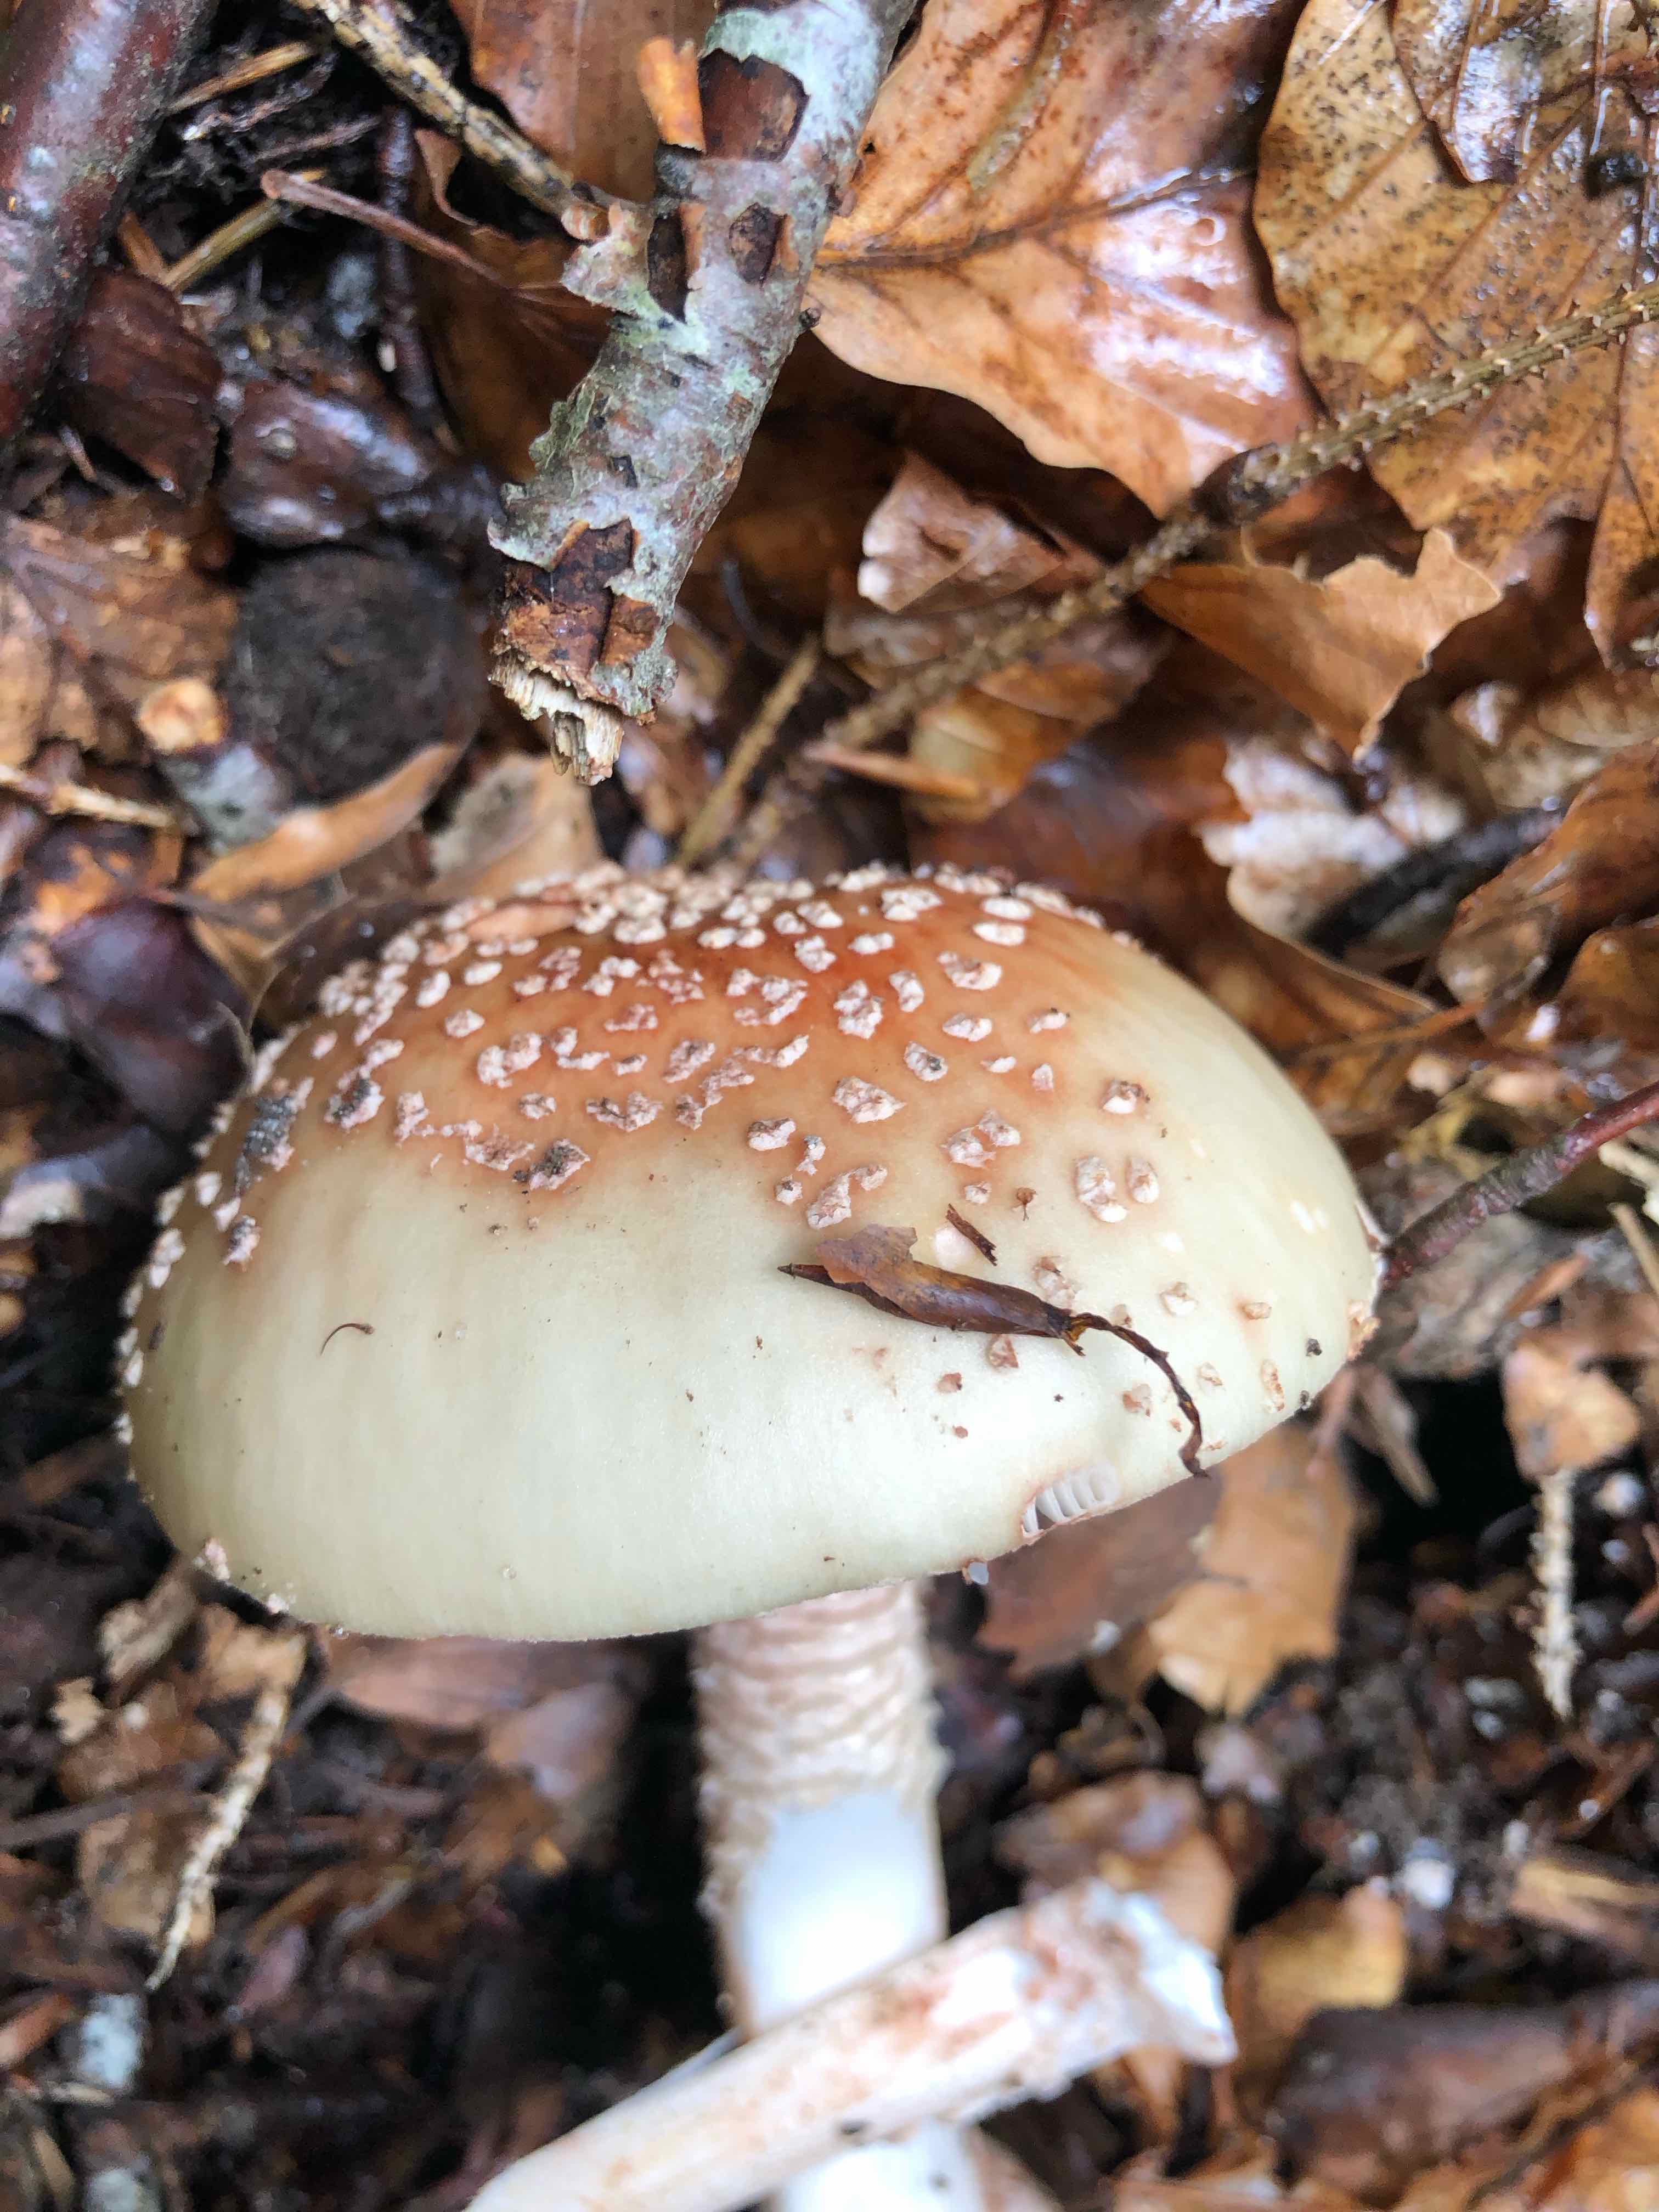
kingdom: Fungi
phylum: Basidiomycota
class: Agaricomycetes
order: Agaricales
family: Amanitaceae
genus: Amanita
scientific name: Amanita rubescens
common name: rødmende fluesvamp
